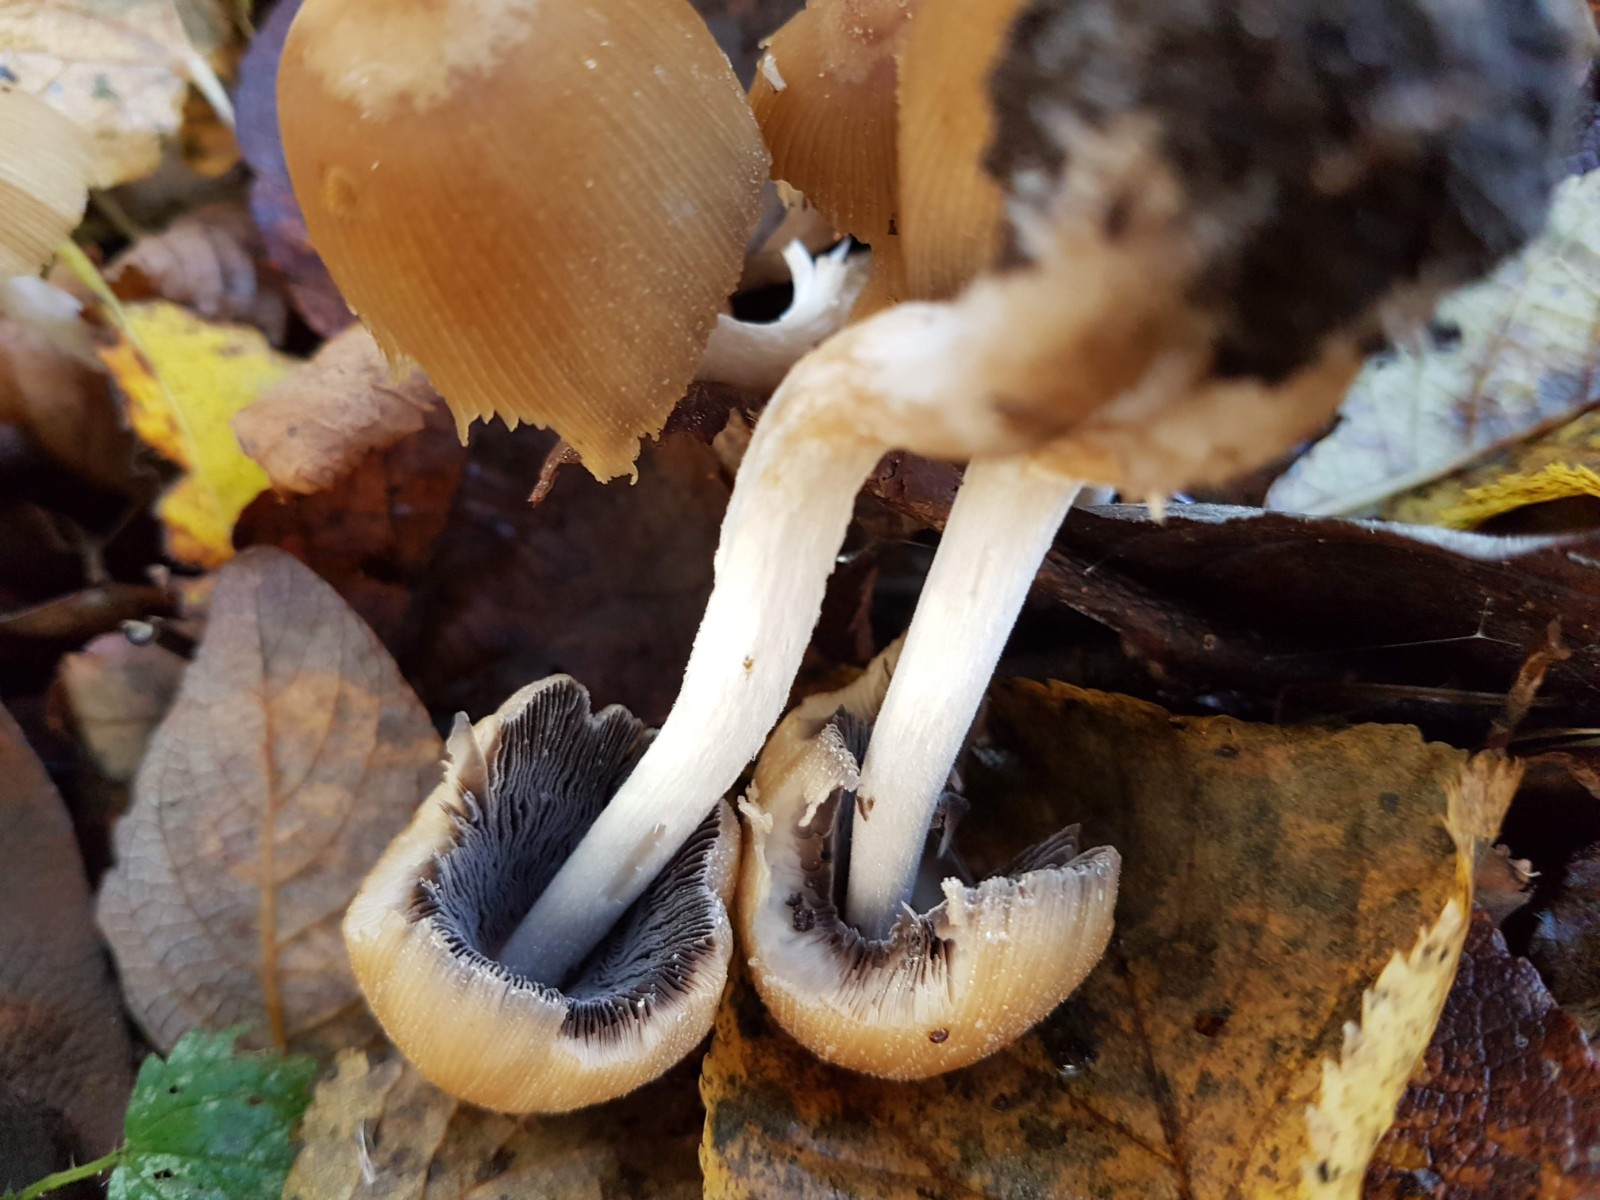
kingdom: Fungi
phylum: Basidiomycota
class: Agaricomycetes
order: Agaricales
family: Psathyrellaceae
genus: Coprinellus
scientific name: Coprinellus micaceus
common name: glimmer-blækhat
